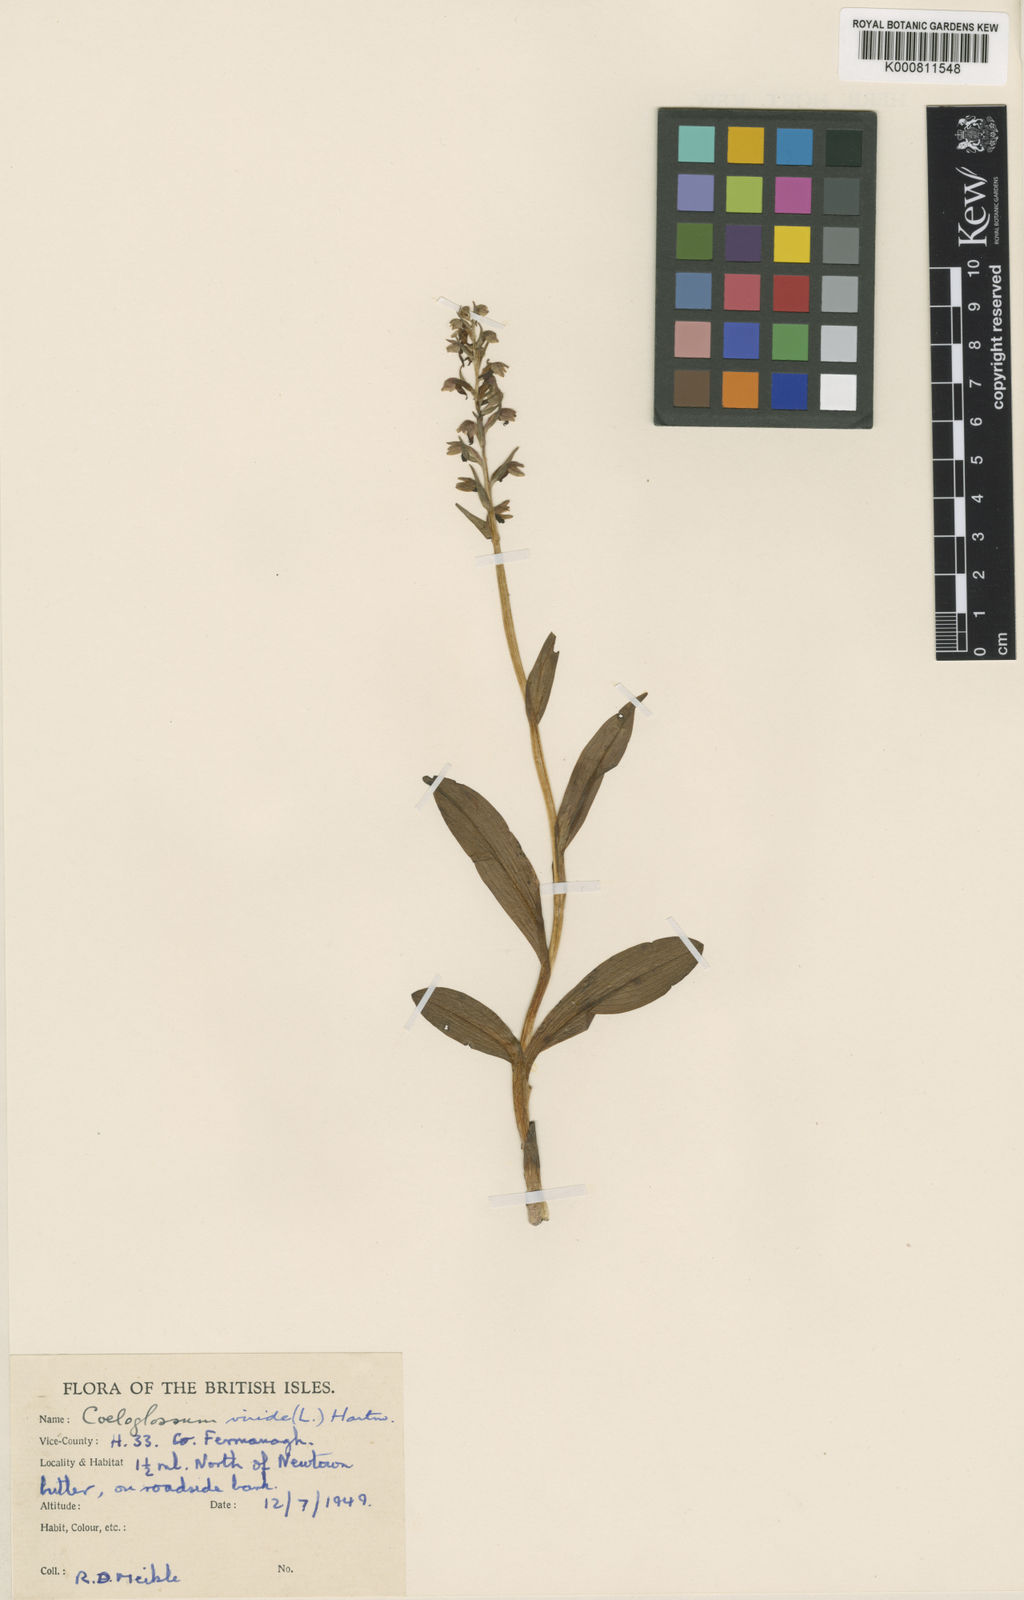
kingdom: Plantae
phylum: Tracheophyta
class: Liliopsida
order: Asparagales
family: Orchidaceae
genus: Dactylorhiza
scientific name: Dactylorhiza viridis
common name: Longbract frog orchid
